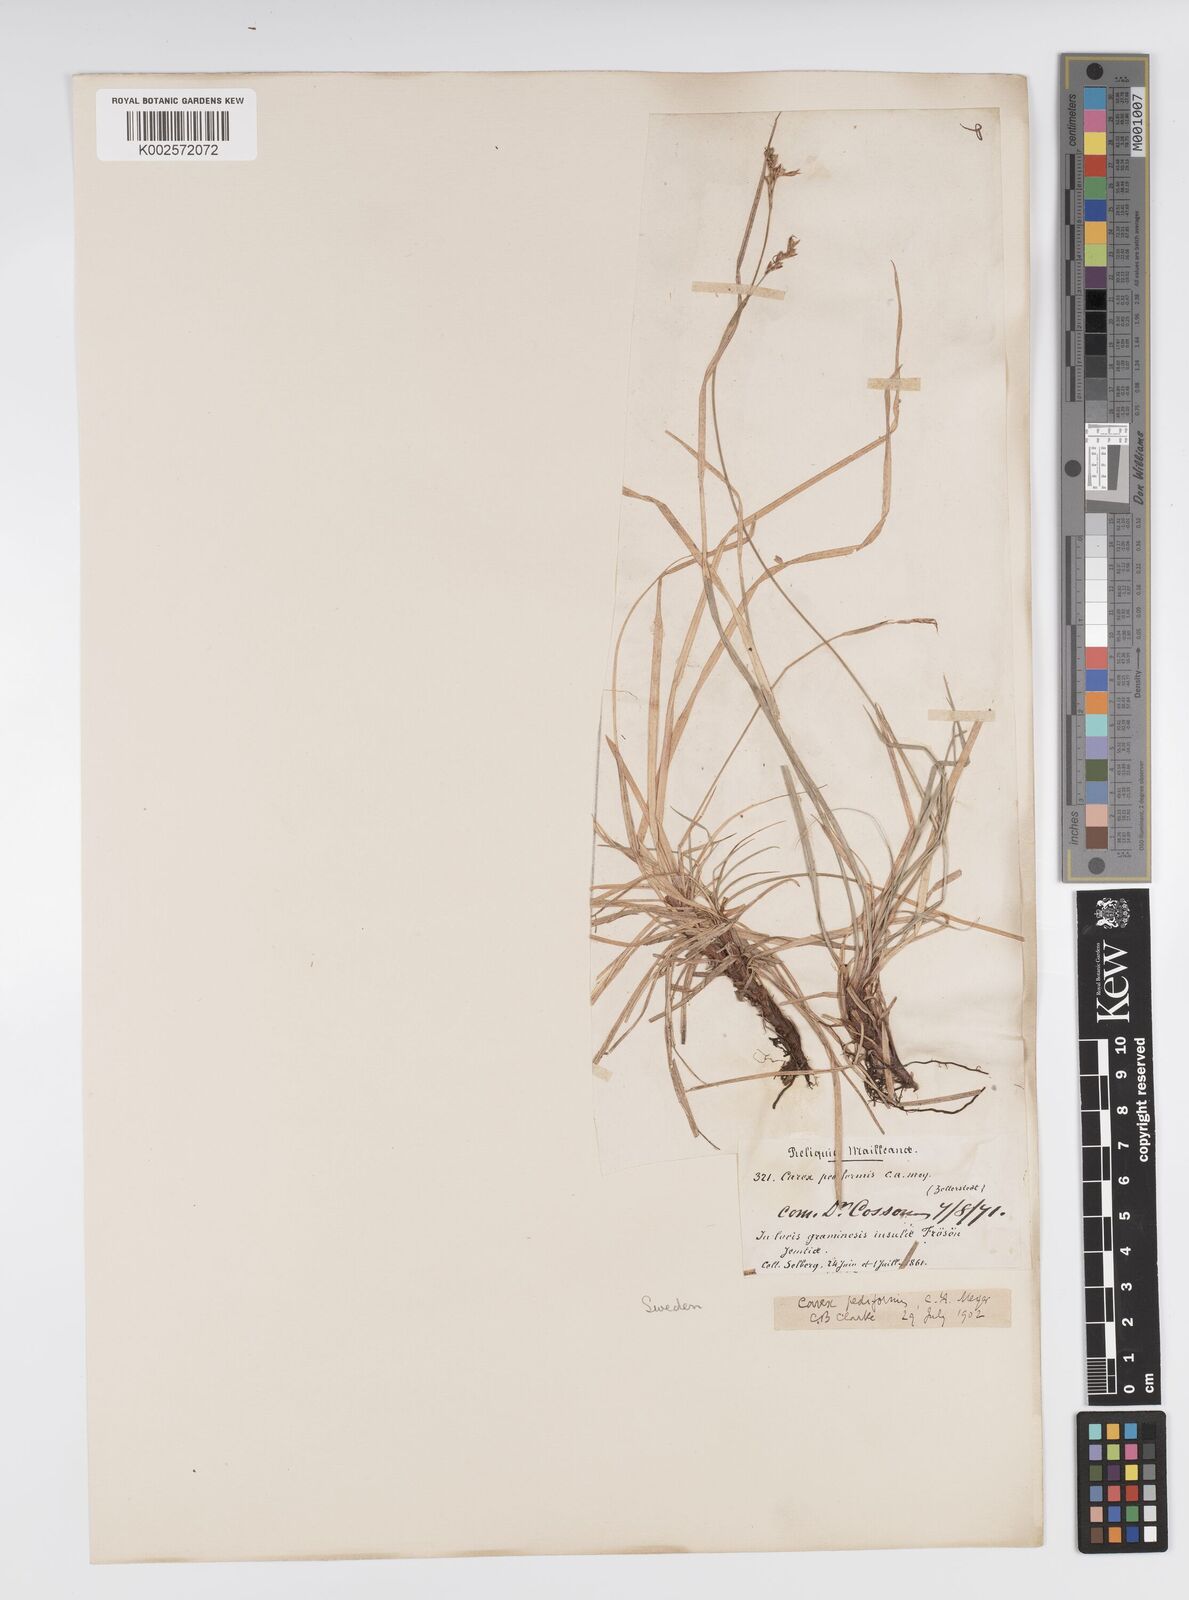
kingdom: Plantae
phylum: Tracheophyta
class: Liliopsida
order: Poales
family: Cyperaceae
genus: Carex
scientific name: Carex pediformis
